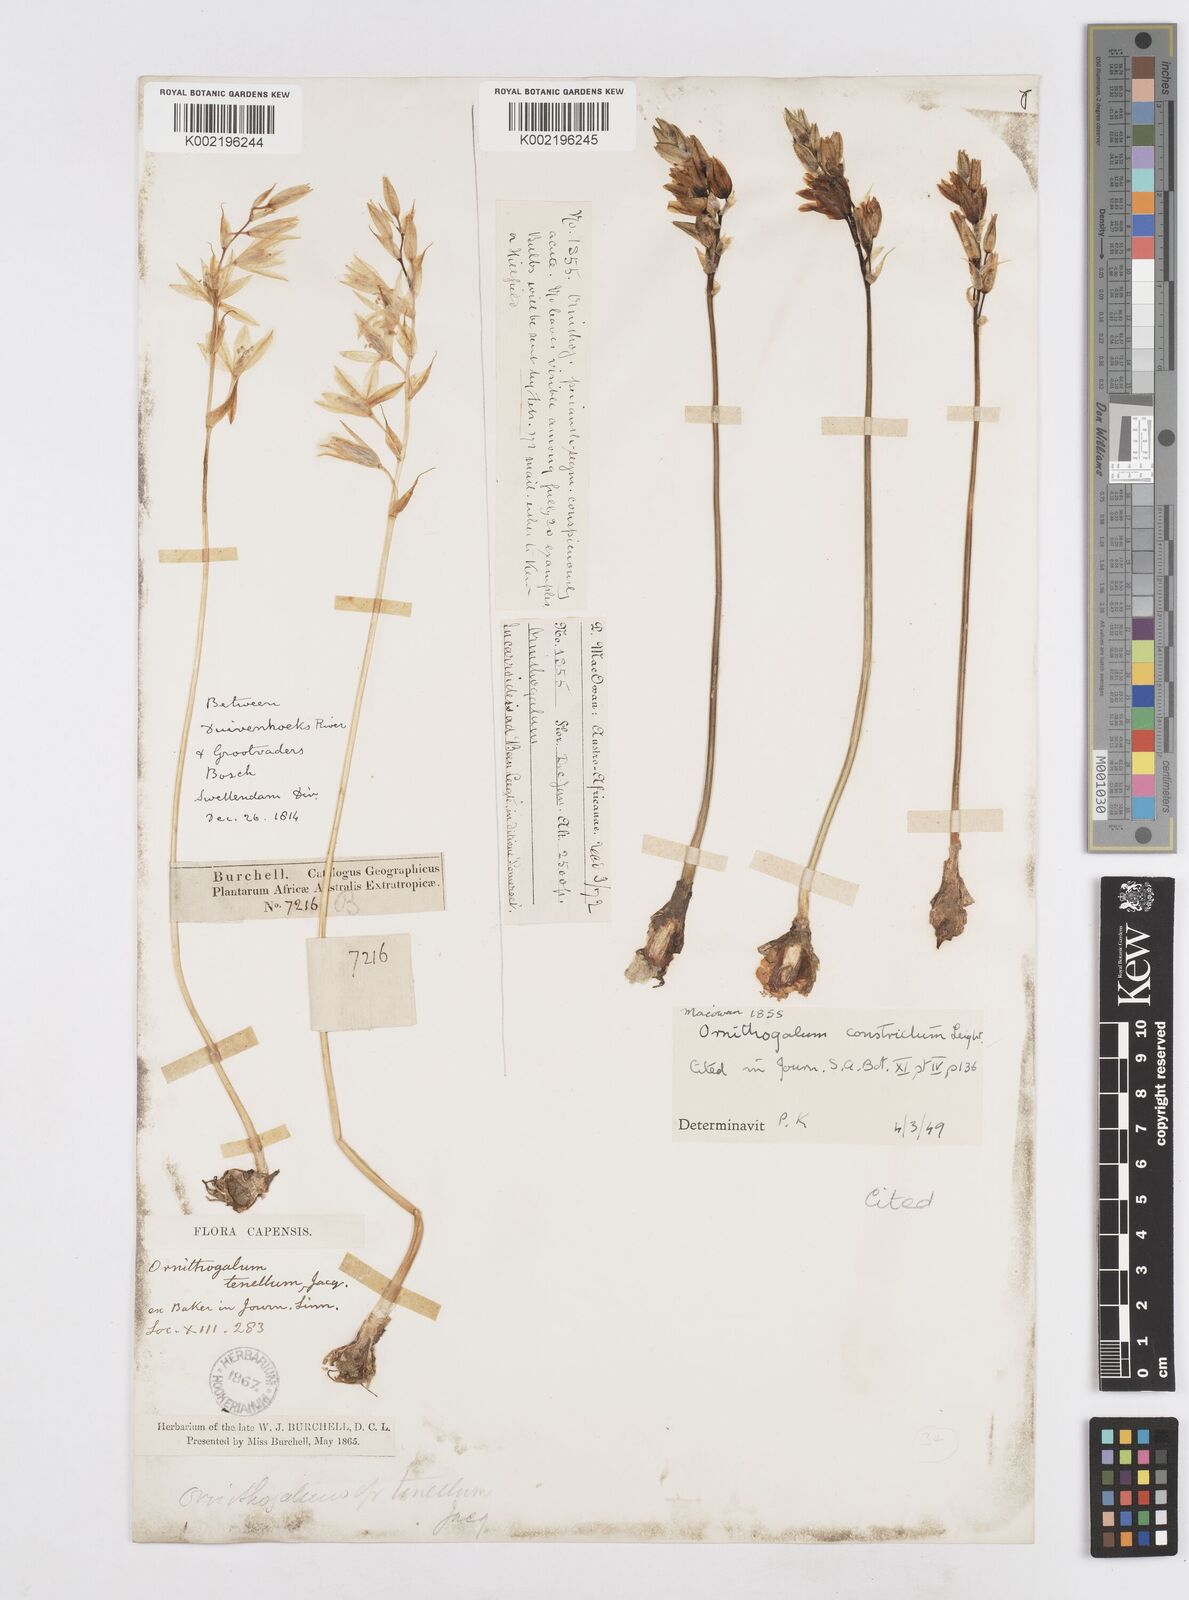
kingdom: Plantae
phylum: Tracheophyta
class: Liliopsida
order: Asparagales
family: Asparagaceae
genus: Ornithogalum
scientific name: Ornithogalum constrictum
